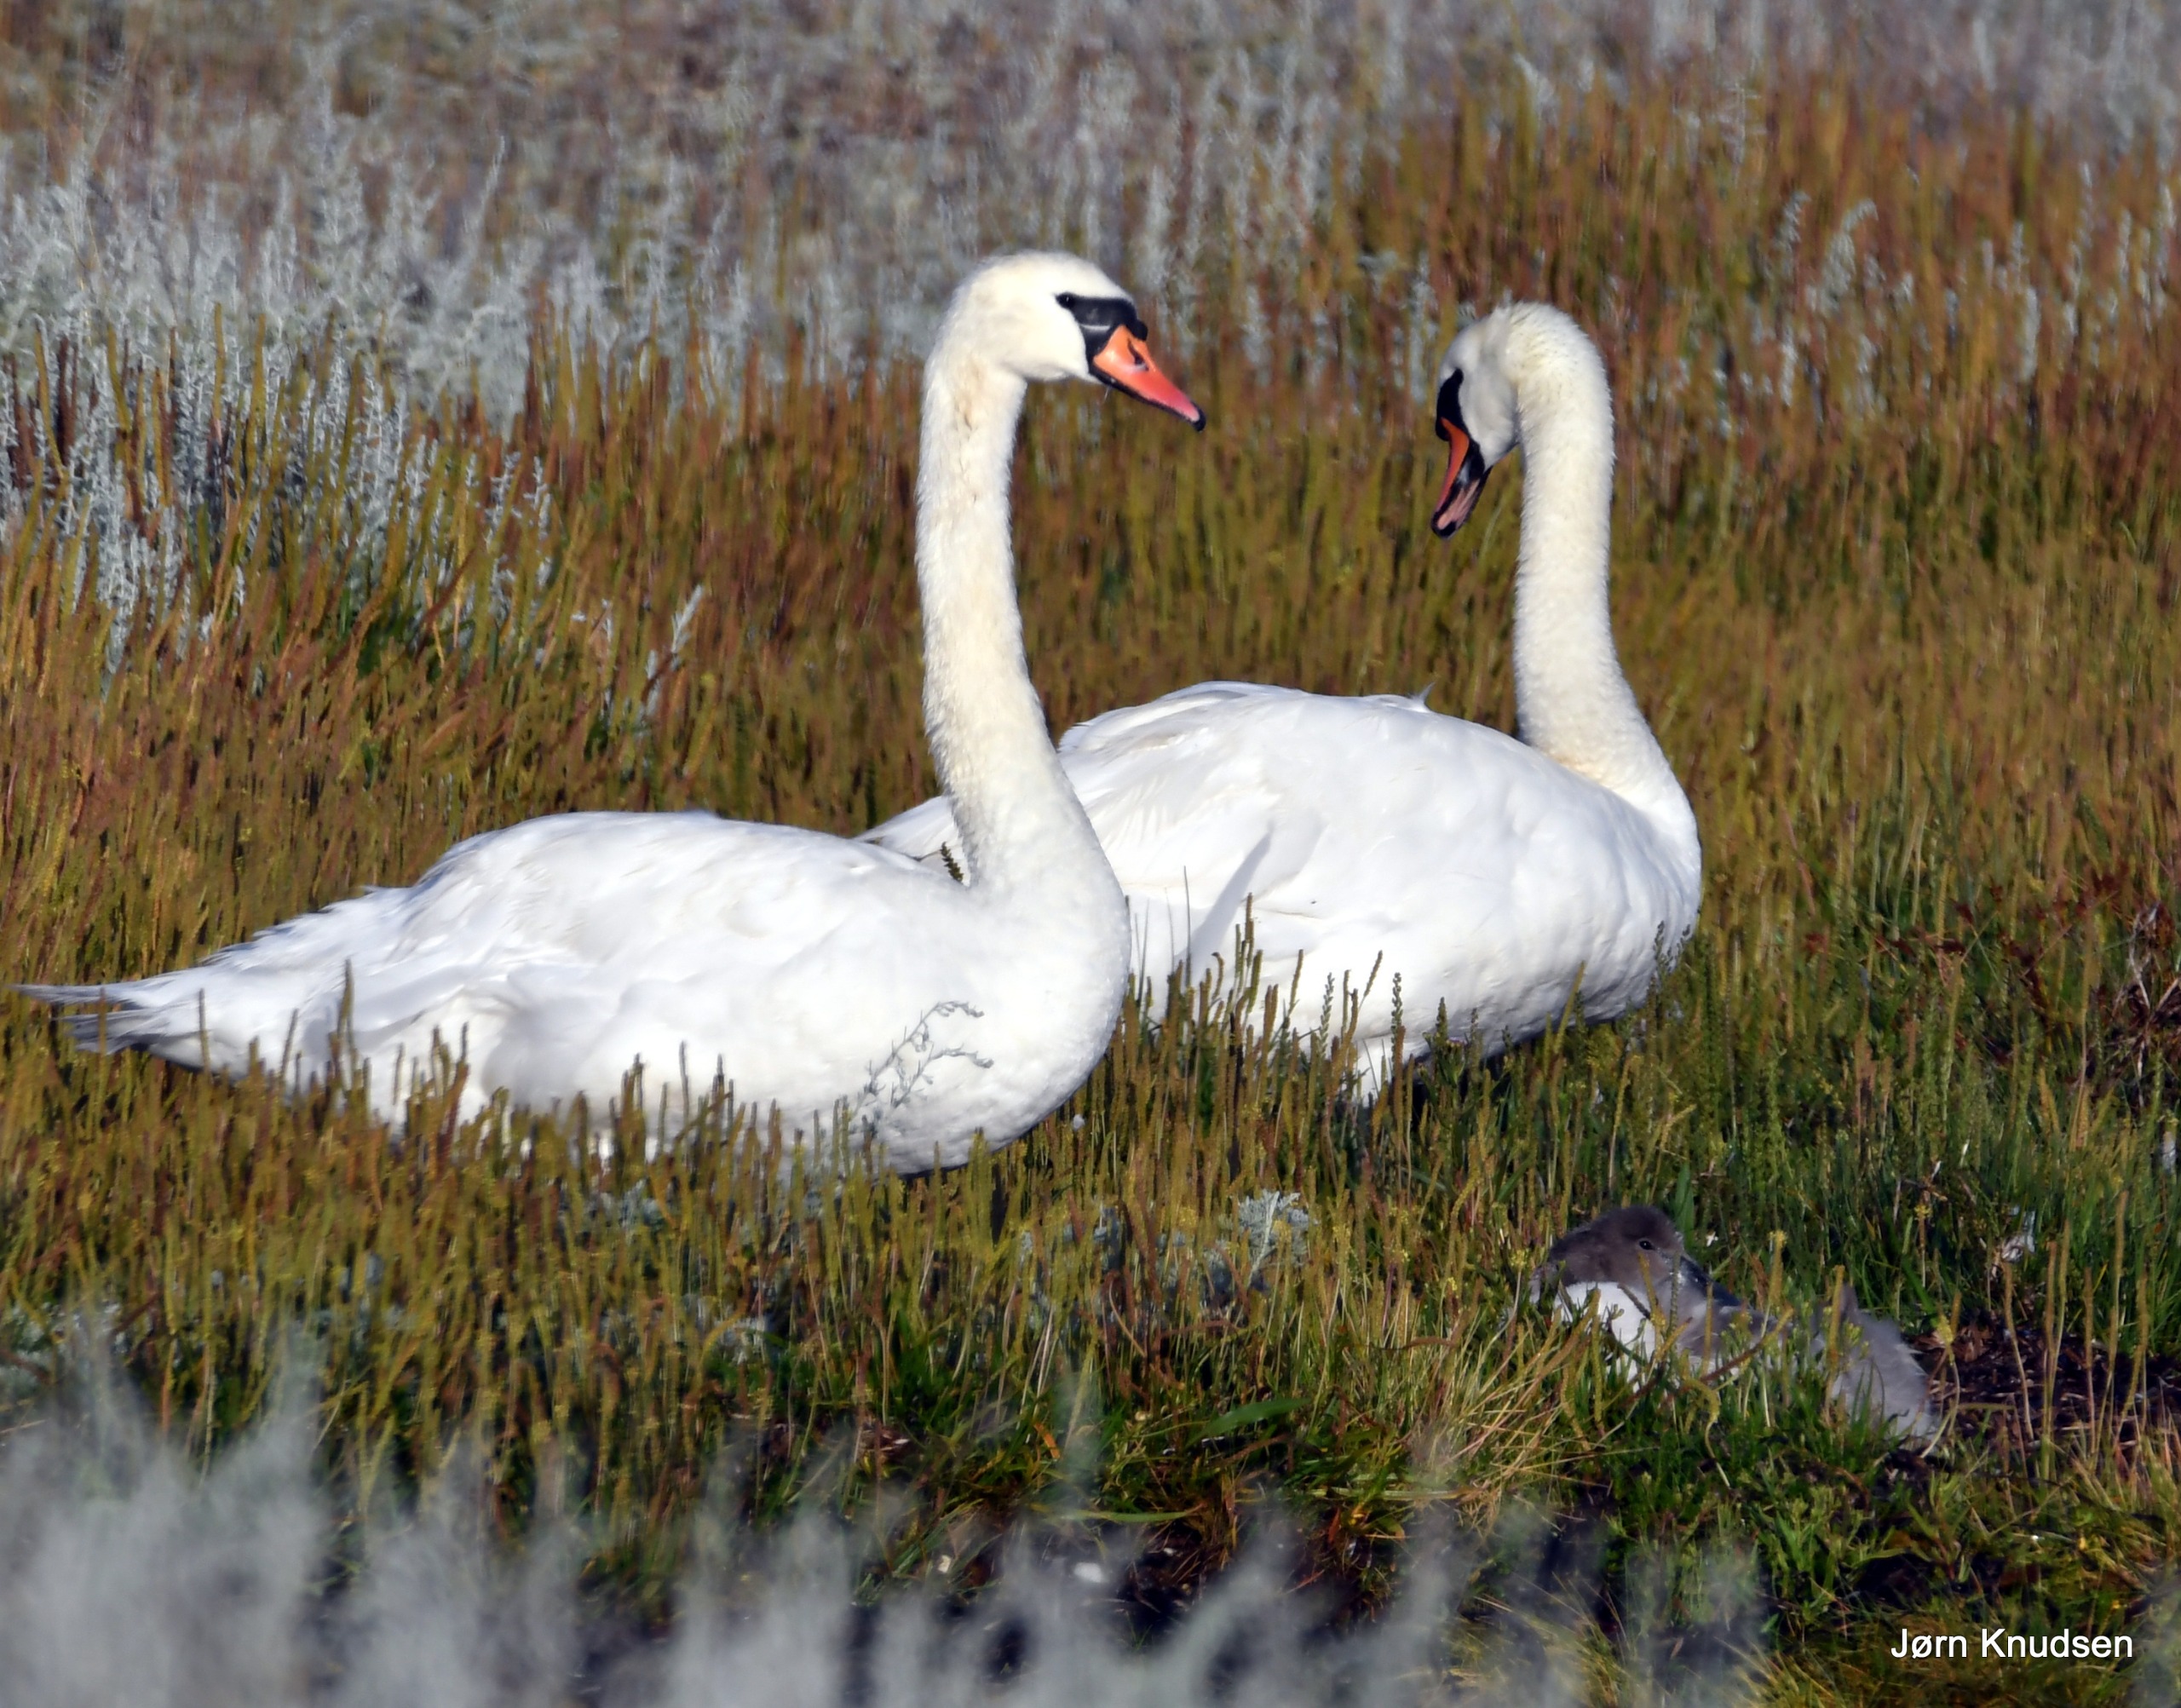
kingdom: Animalia
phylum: Chordata
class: Aves
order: Anseriformes
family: Anatidae
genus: Cygnus
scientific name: Cygnus olor
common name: Knopsvane
